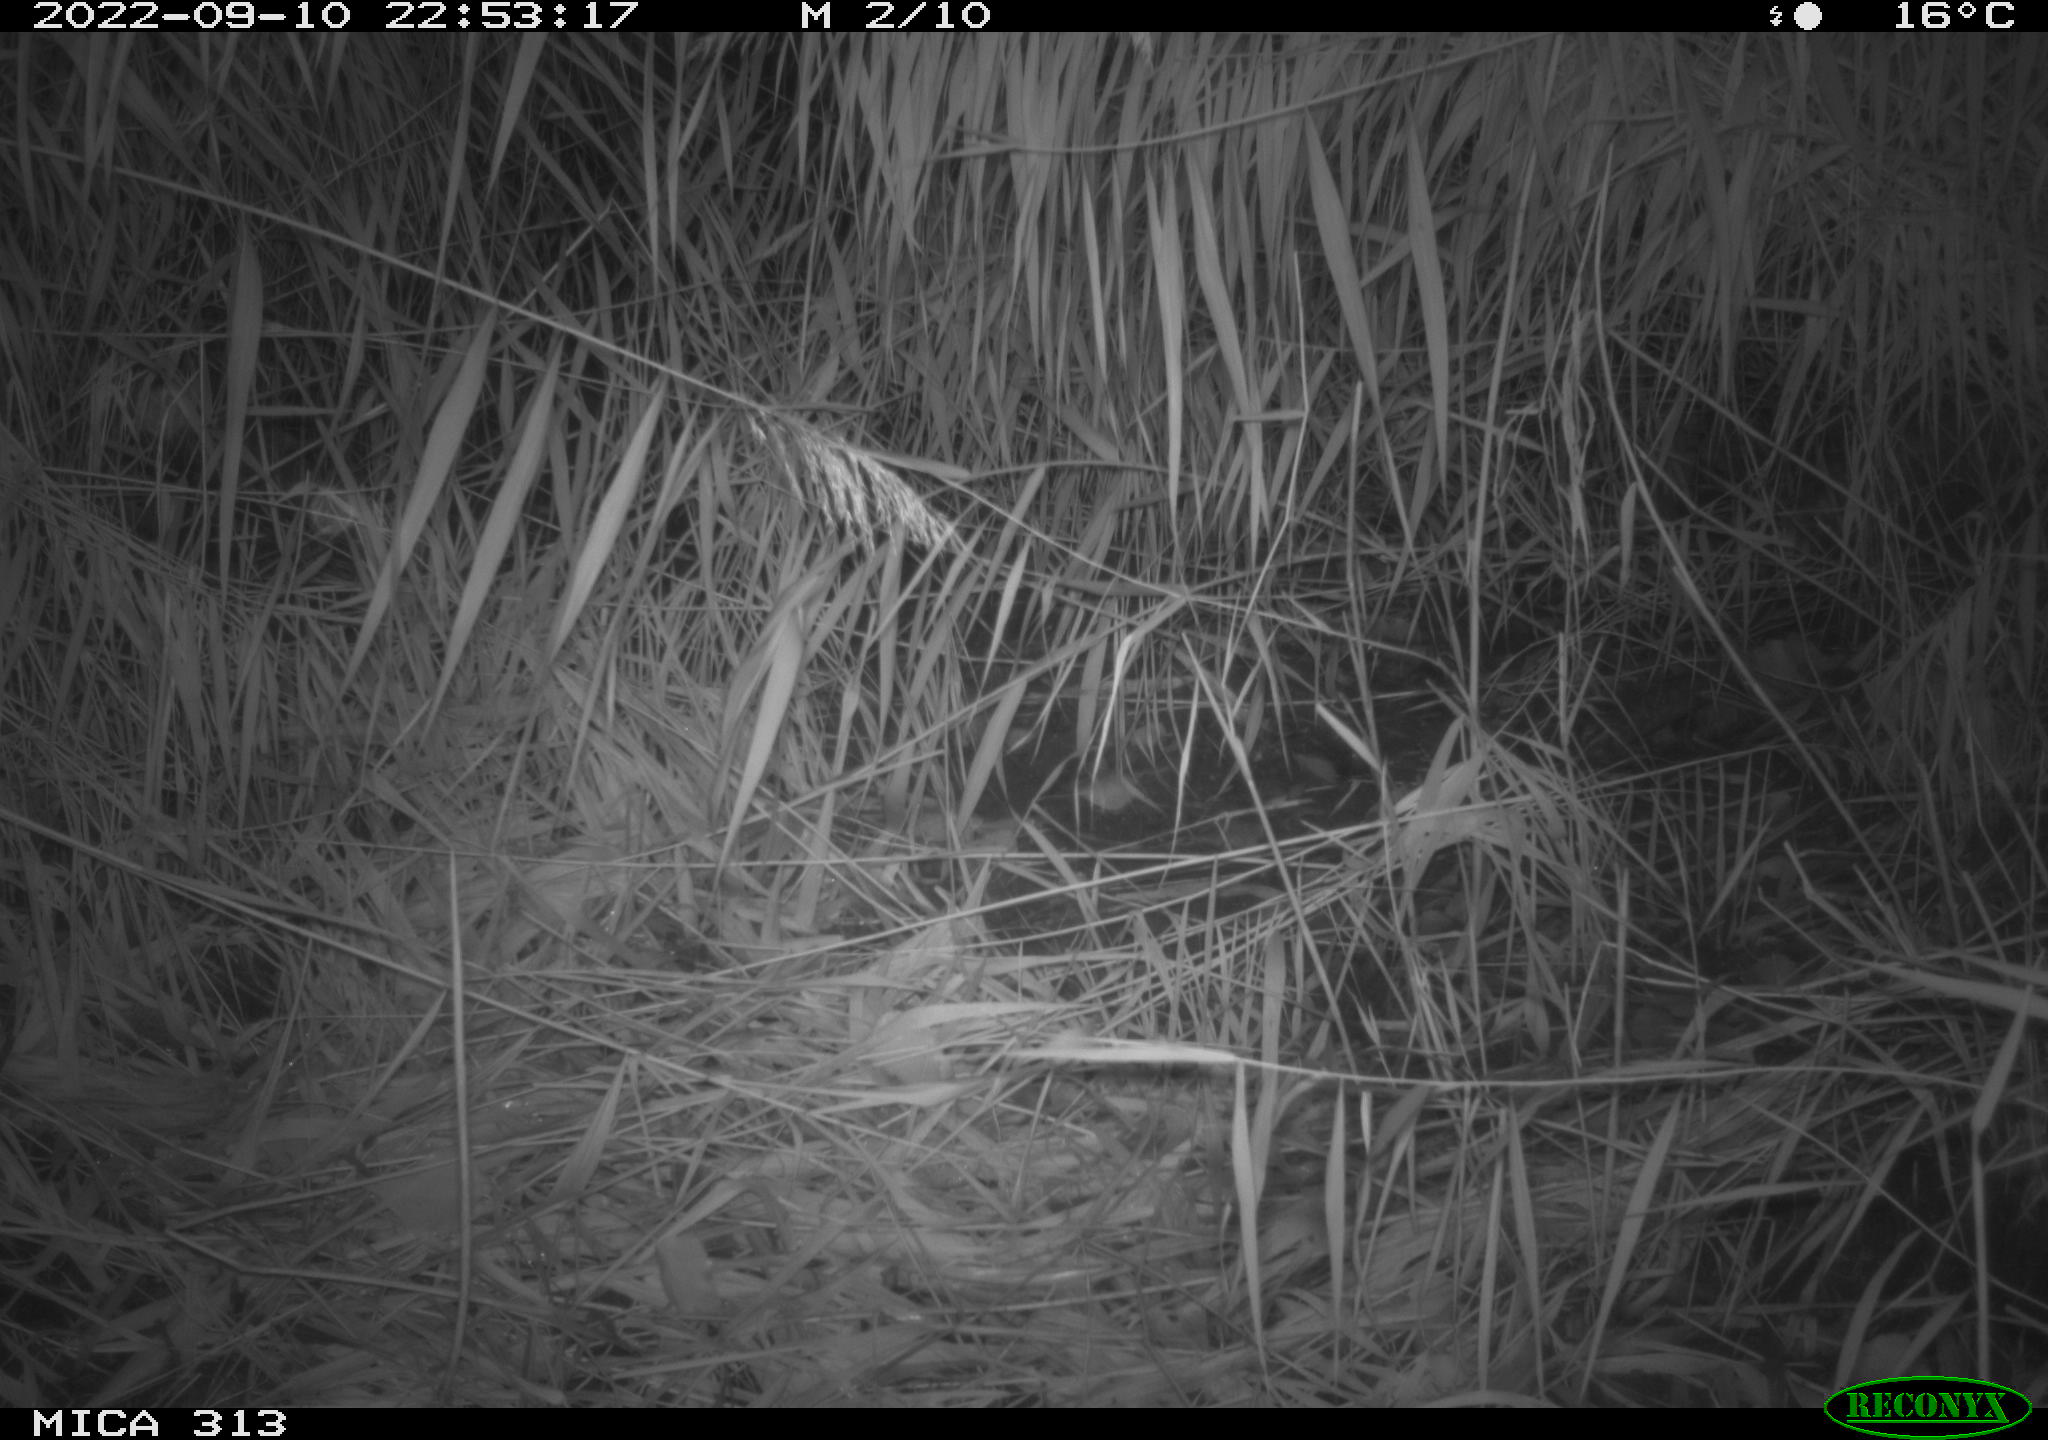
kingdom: Animalia
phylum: Chordata
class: Mammalia
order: Rodentia
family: Muridae
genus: Rattus
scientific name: Rattus norvegicus
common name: Brown rat
